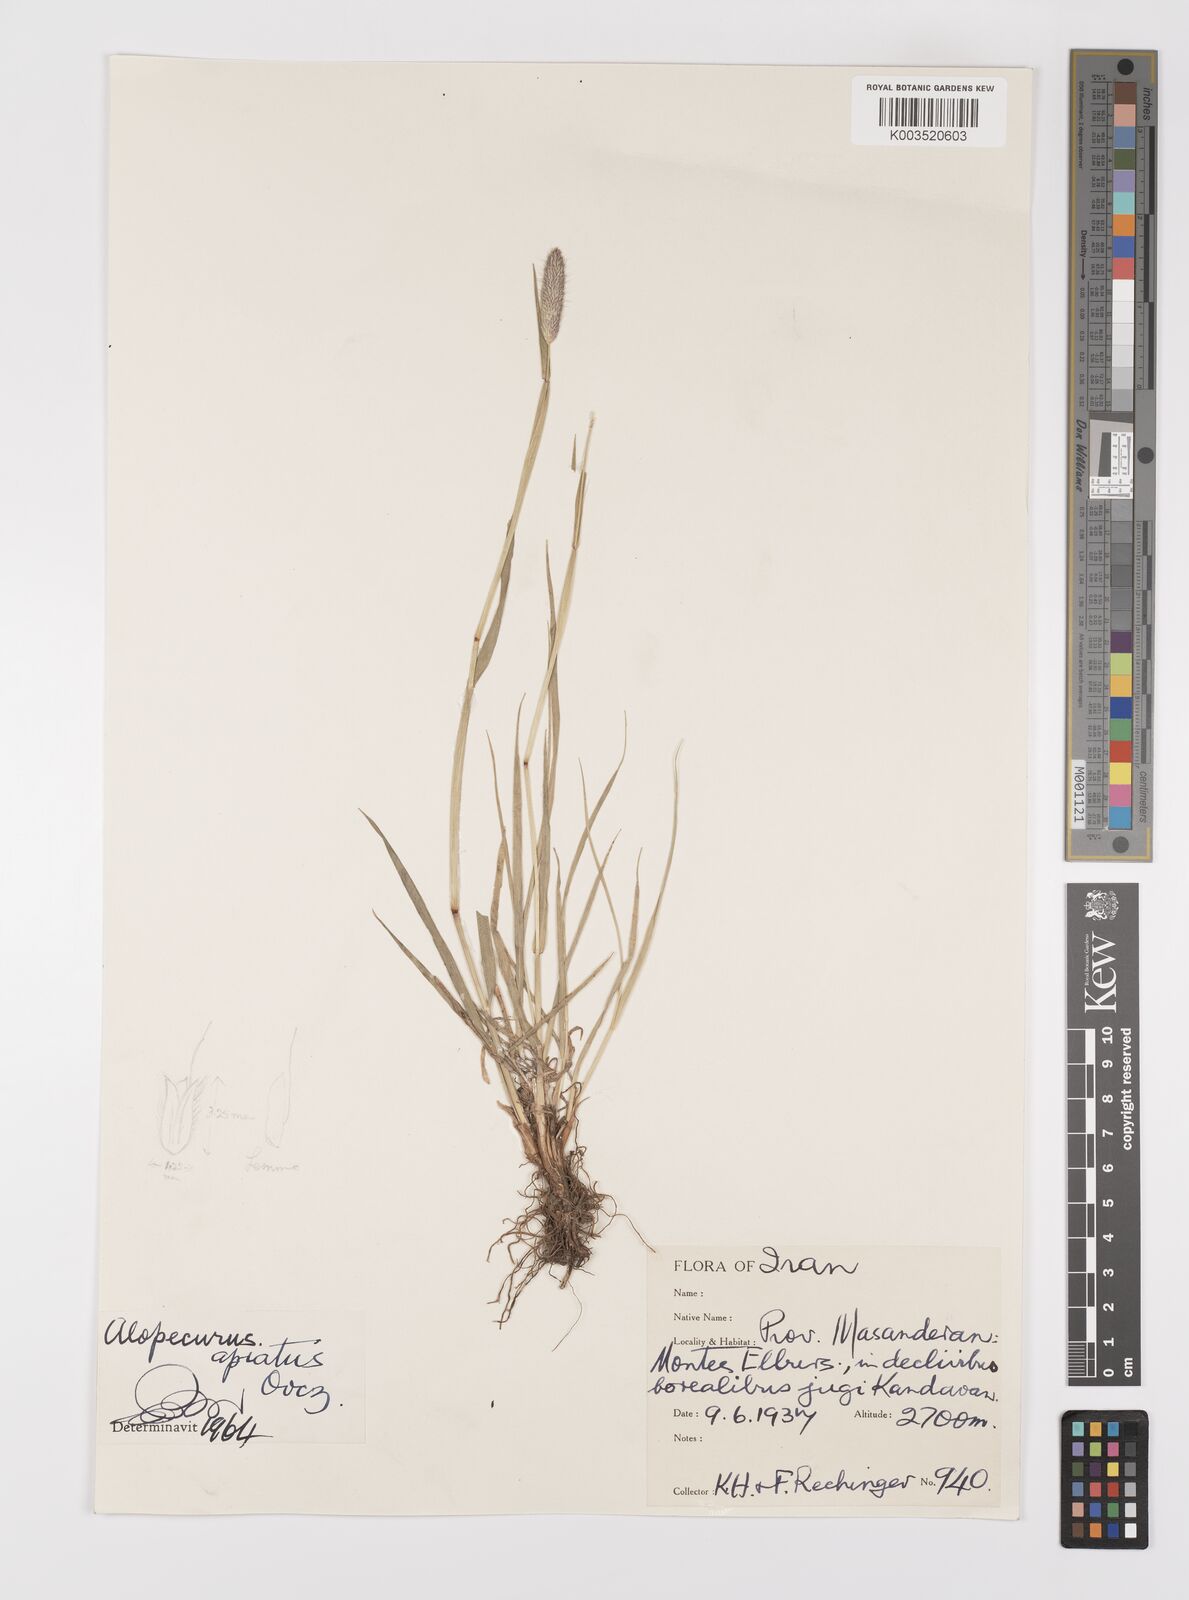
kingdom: Plantae
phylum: Tracheophyta
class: Liliopsida
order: Poales
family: Poaceae
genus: Alopecurus
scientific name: Alopecurus apiatus
